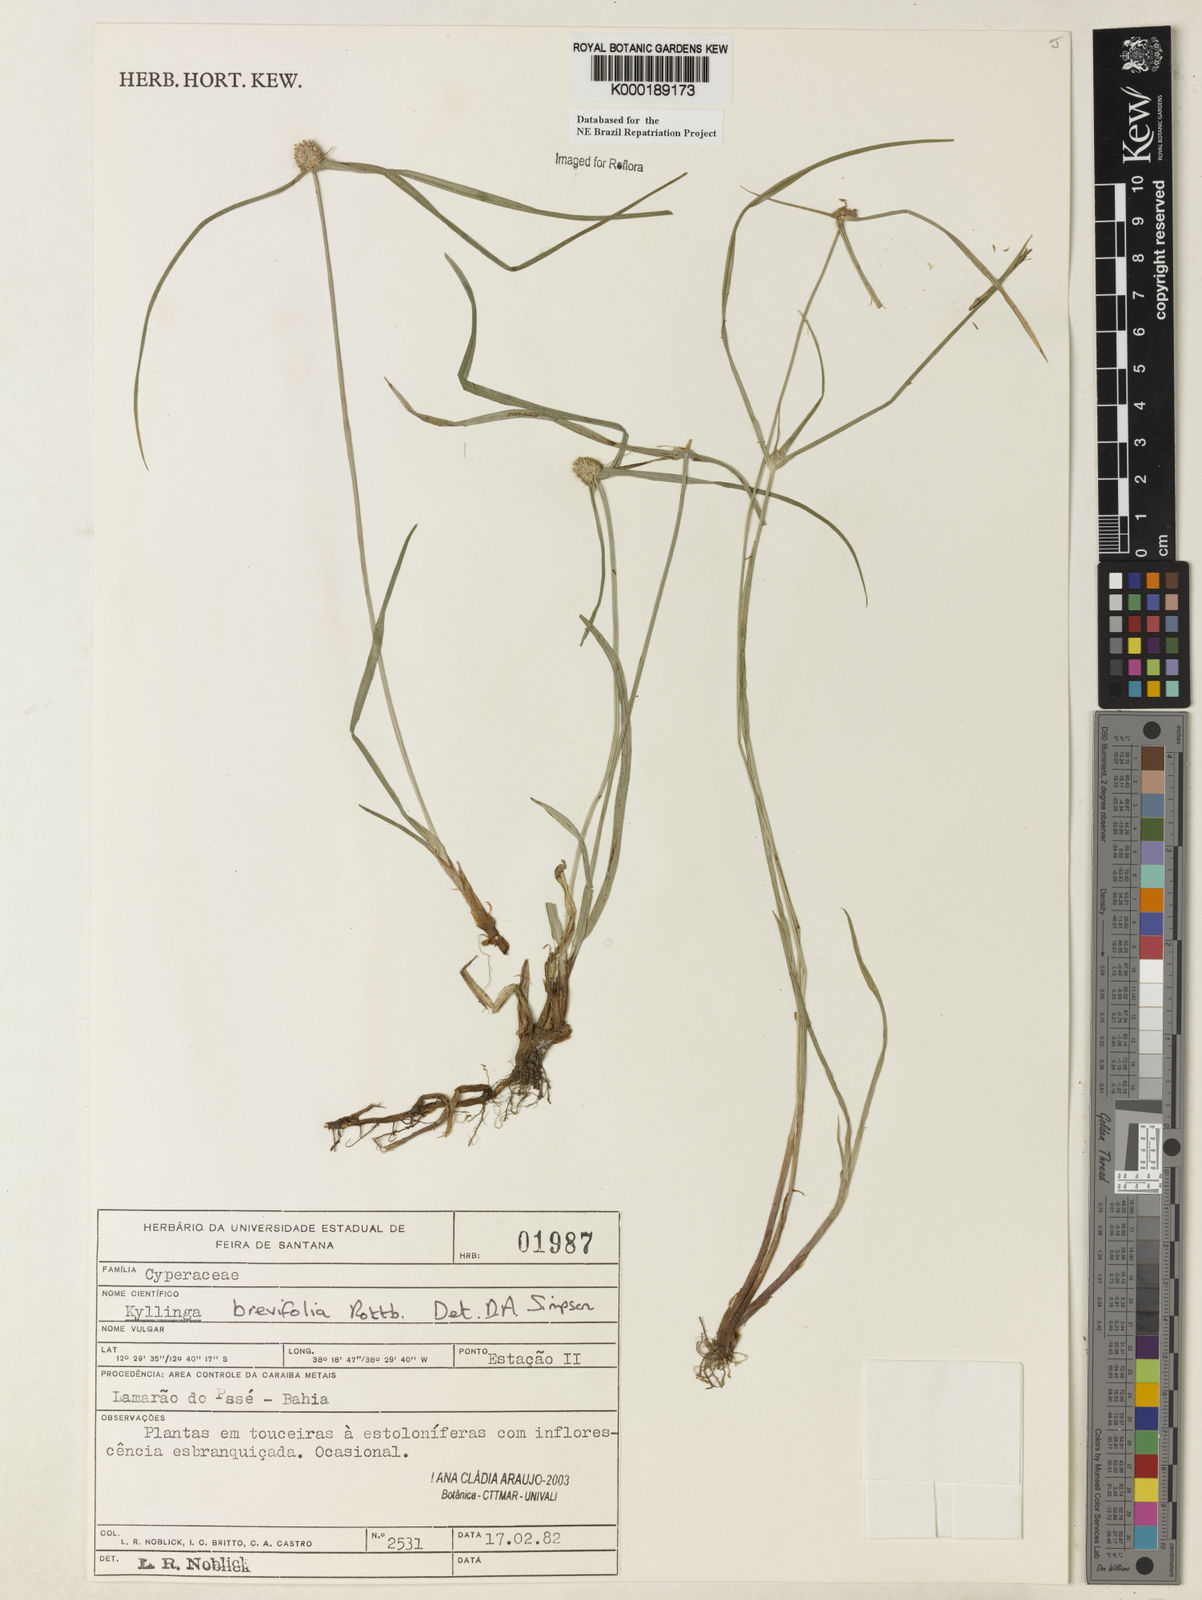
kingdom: Plantae
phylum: Tracheophyta
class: Liliopsida
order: Poales
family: Cyperaceae
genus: Cyperus
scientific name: Cyperus brevifolius
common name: Globe kyllinga
